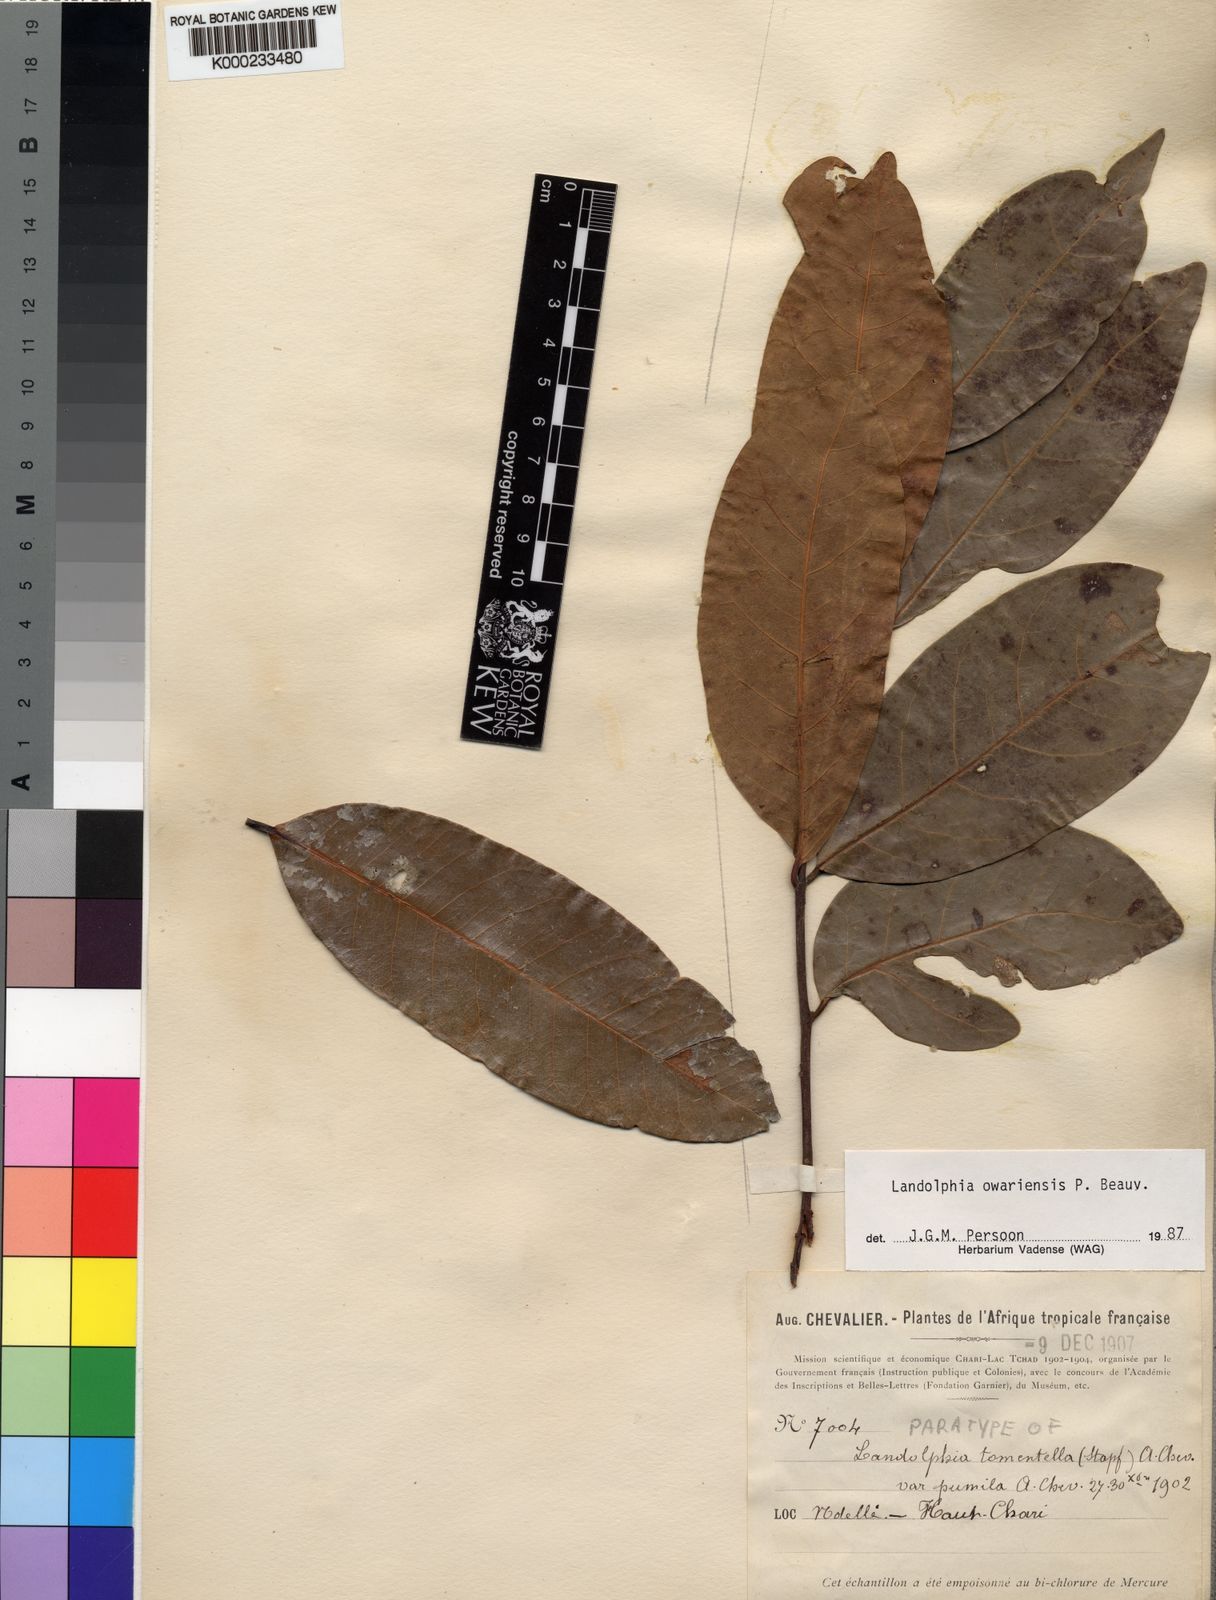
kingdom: Plantae
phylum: Tracheophyta
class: Magnoliopsida
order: Gentianales
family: Apocynaceae
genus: Landolphia
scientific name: Landolphia owariensis
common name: White-ball-rubber
